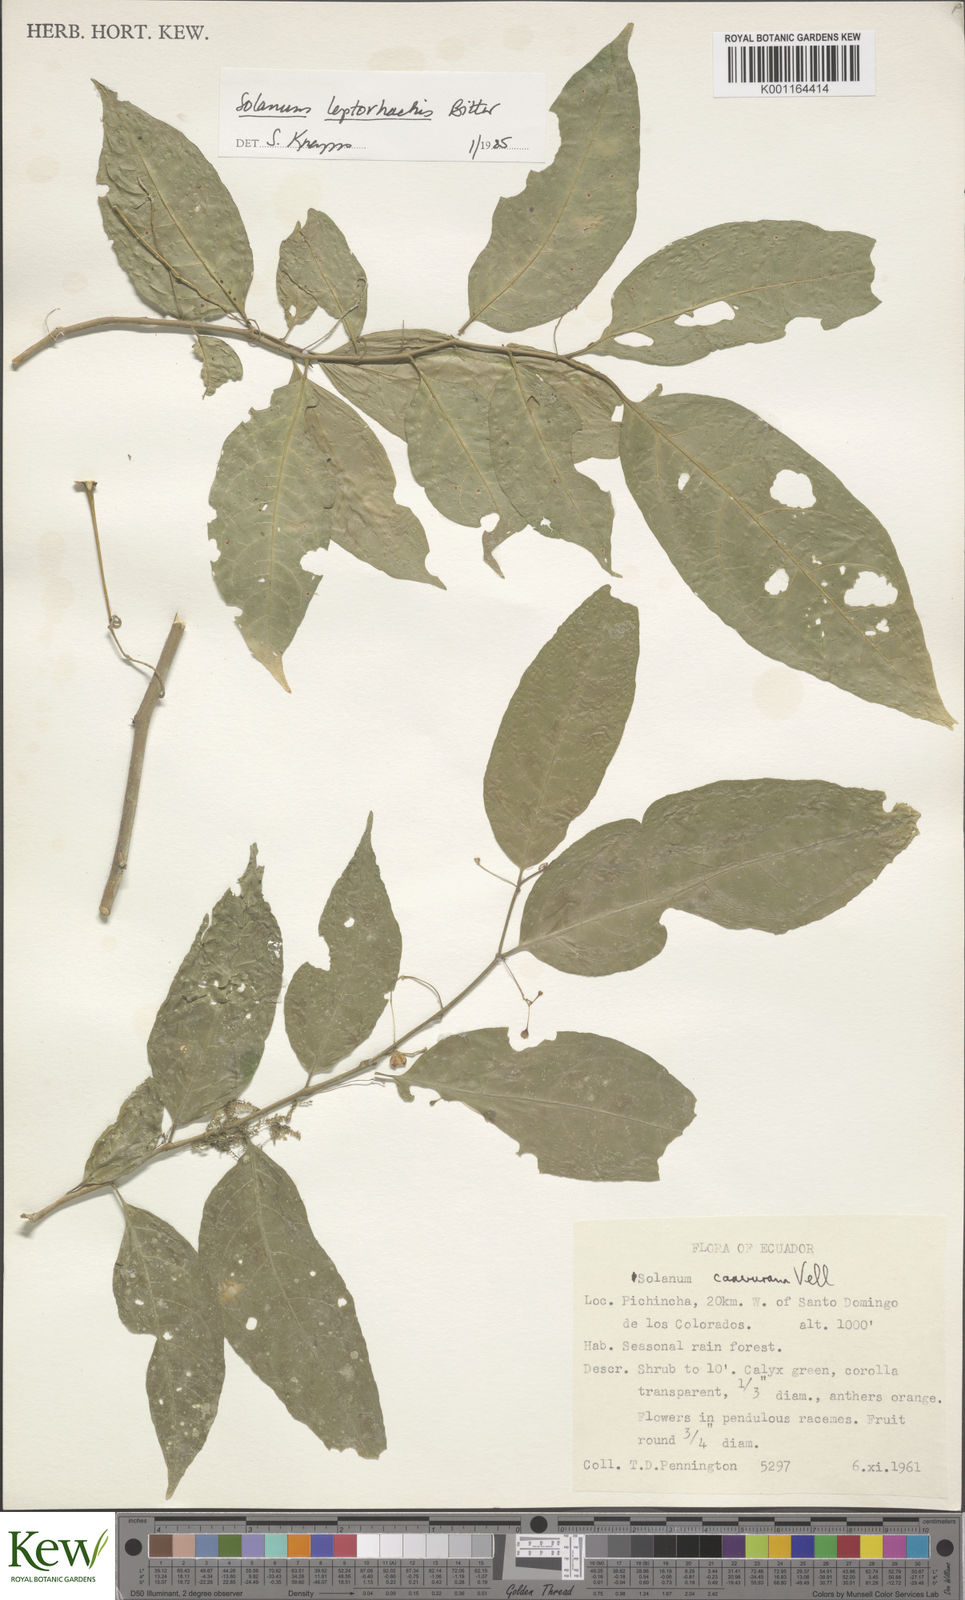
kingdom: Plantae
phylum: Tracheophyta
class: Magnoliopsida
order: Solanales
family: Solanaceae
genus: Solanum
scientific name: Solanum leptorhachis
